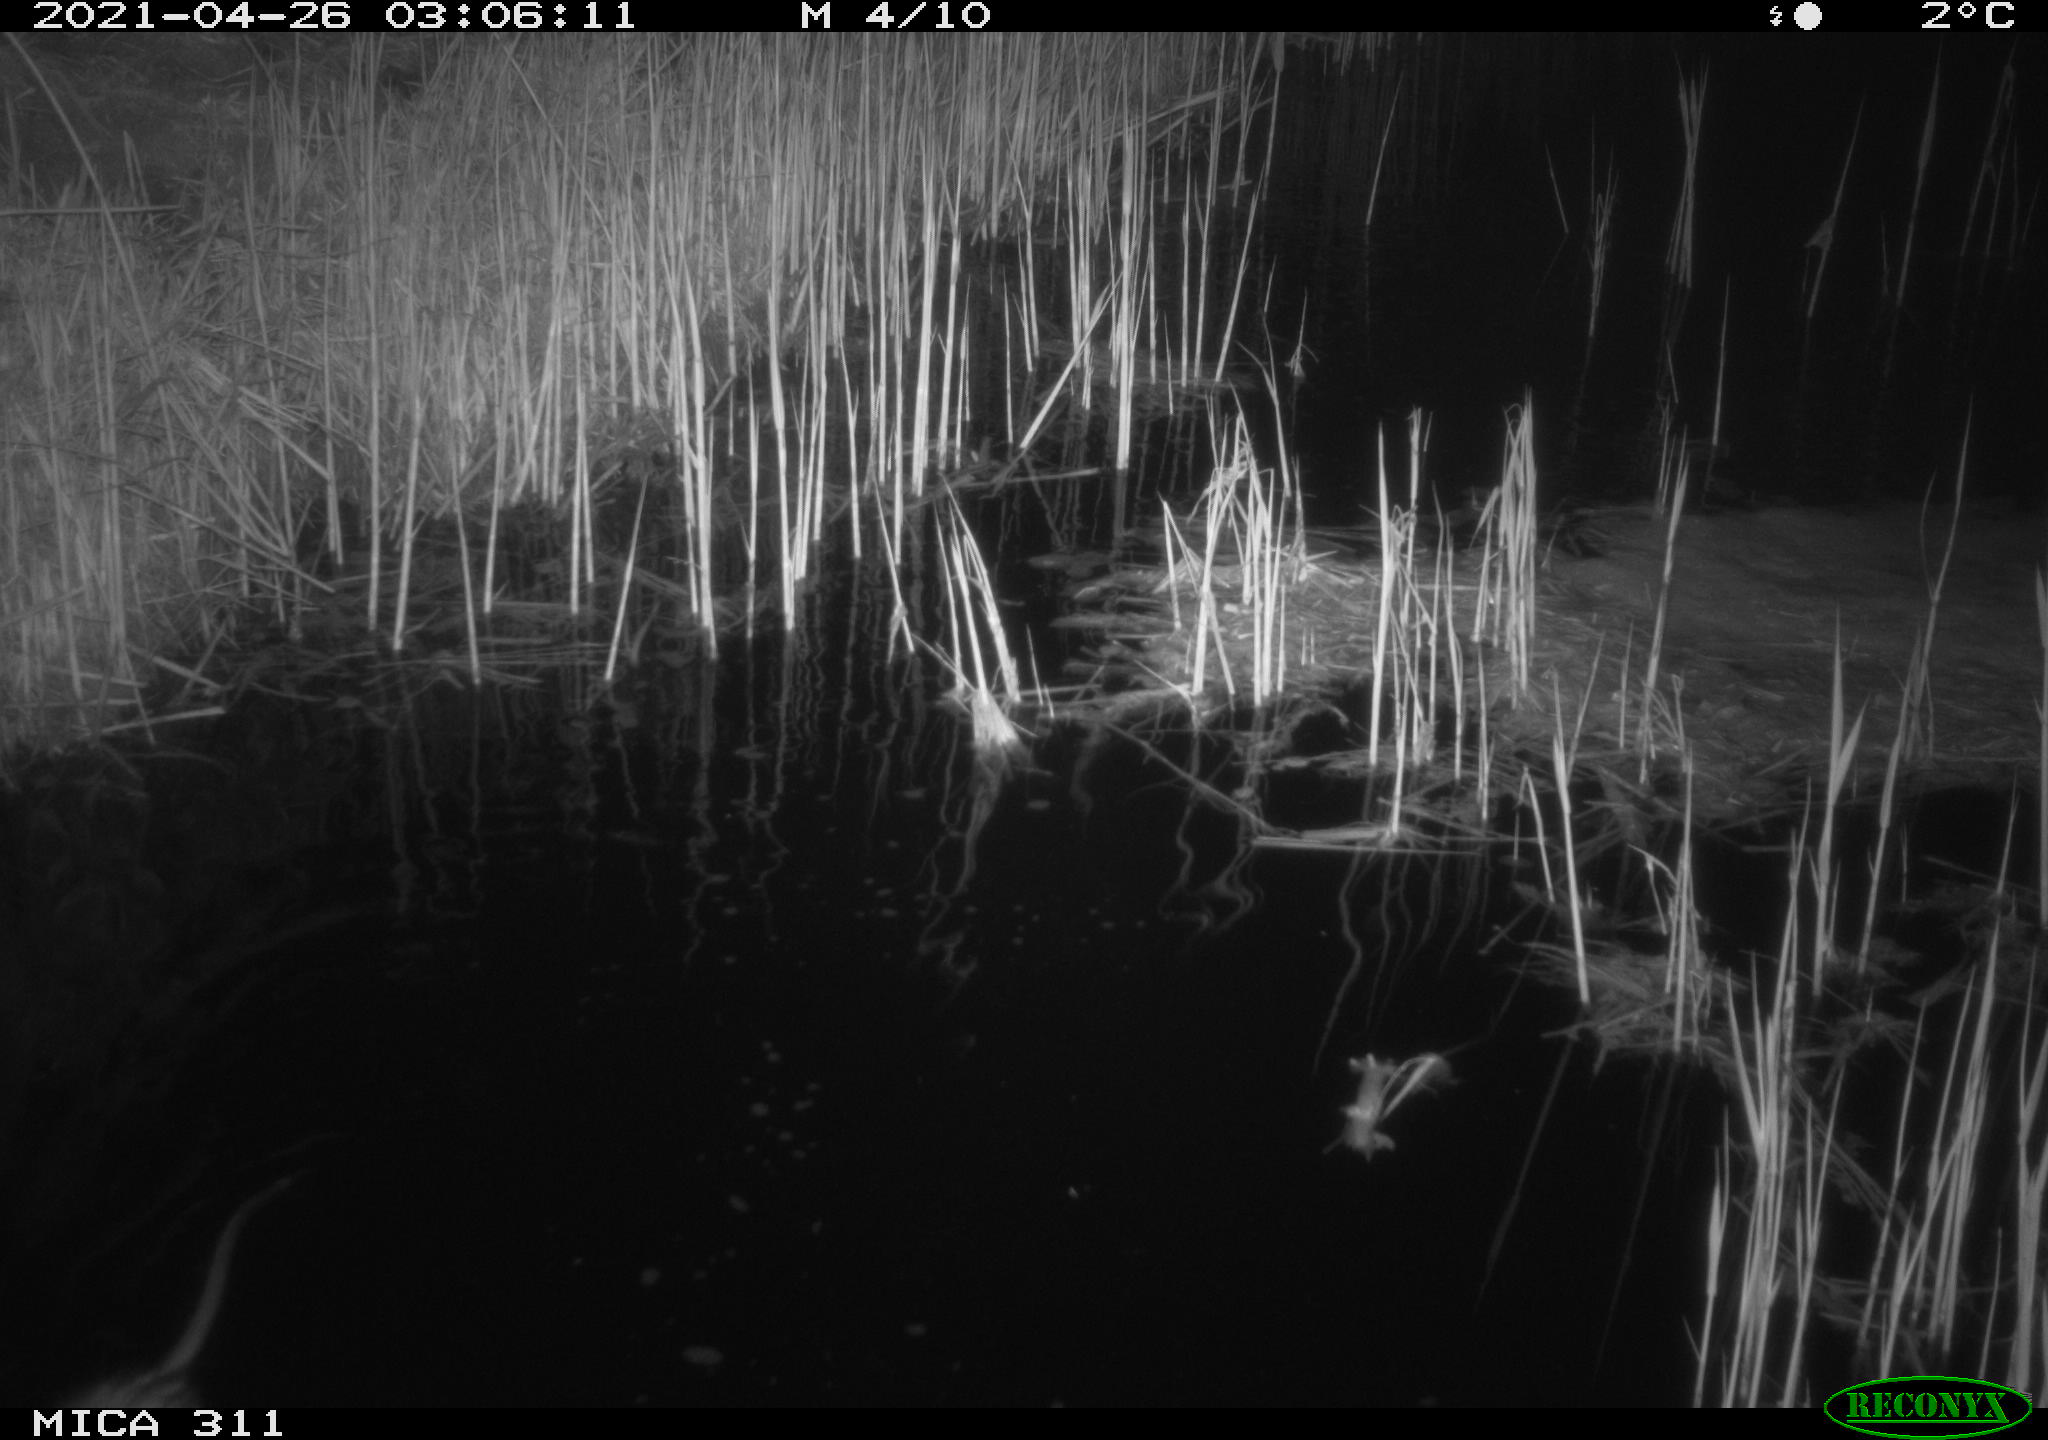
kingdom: Animalia
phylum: Chordata
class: Mammalia
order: Rodentia
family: Cricetidae
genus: Ondatra
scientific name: Ondatra zibethicus
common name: Muskrat
